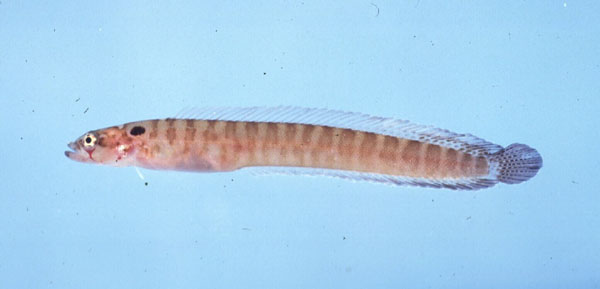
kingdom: Animalia
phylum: Chordata
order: Perciformes
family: Pseudochromidae
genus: Natalichthys
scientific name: Natalichthys sam
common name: Nail snakelet
